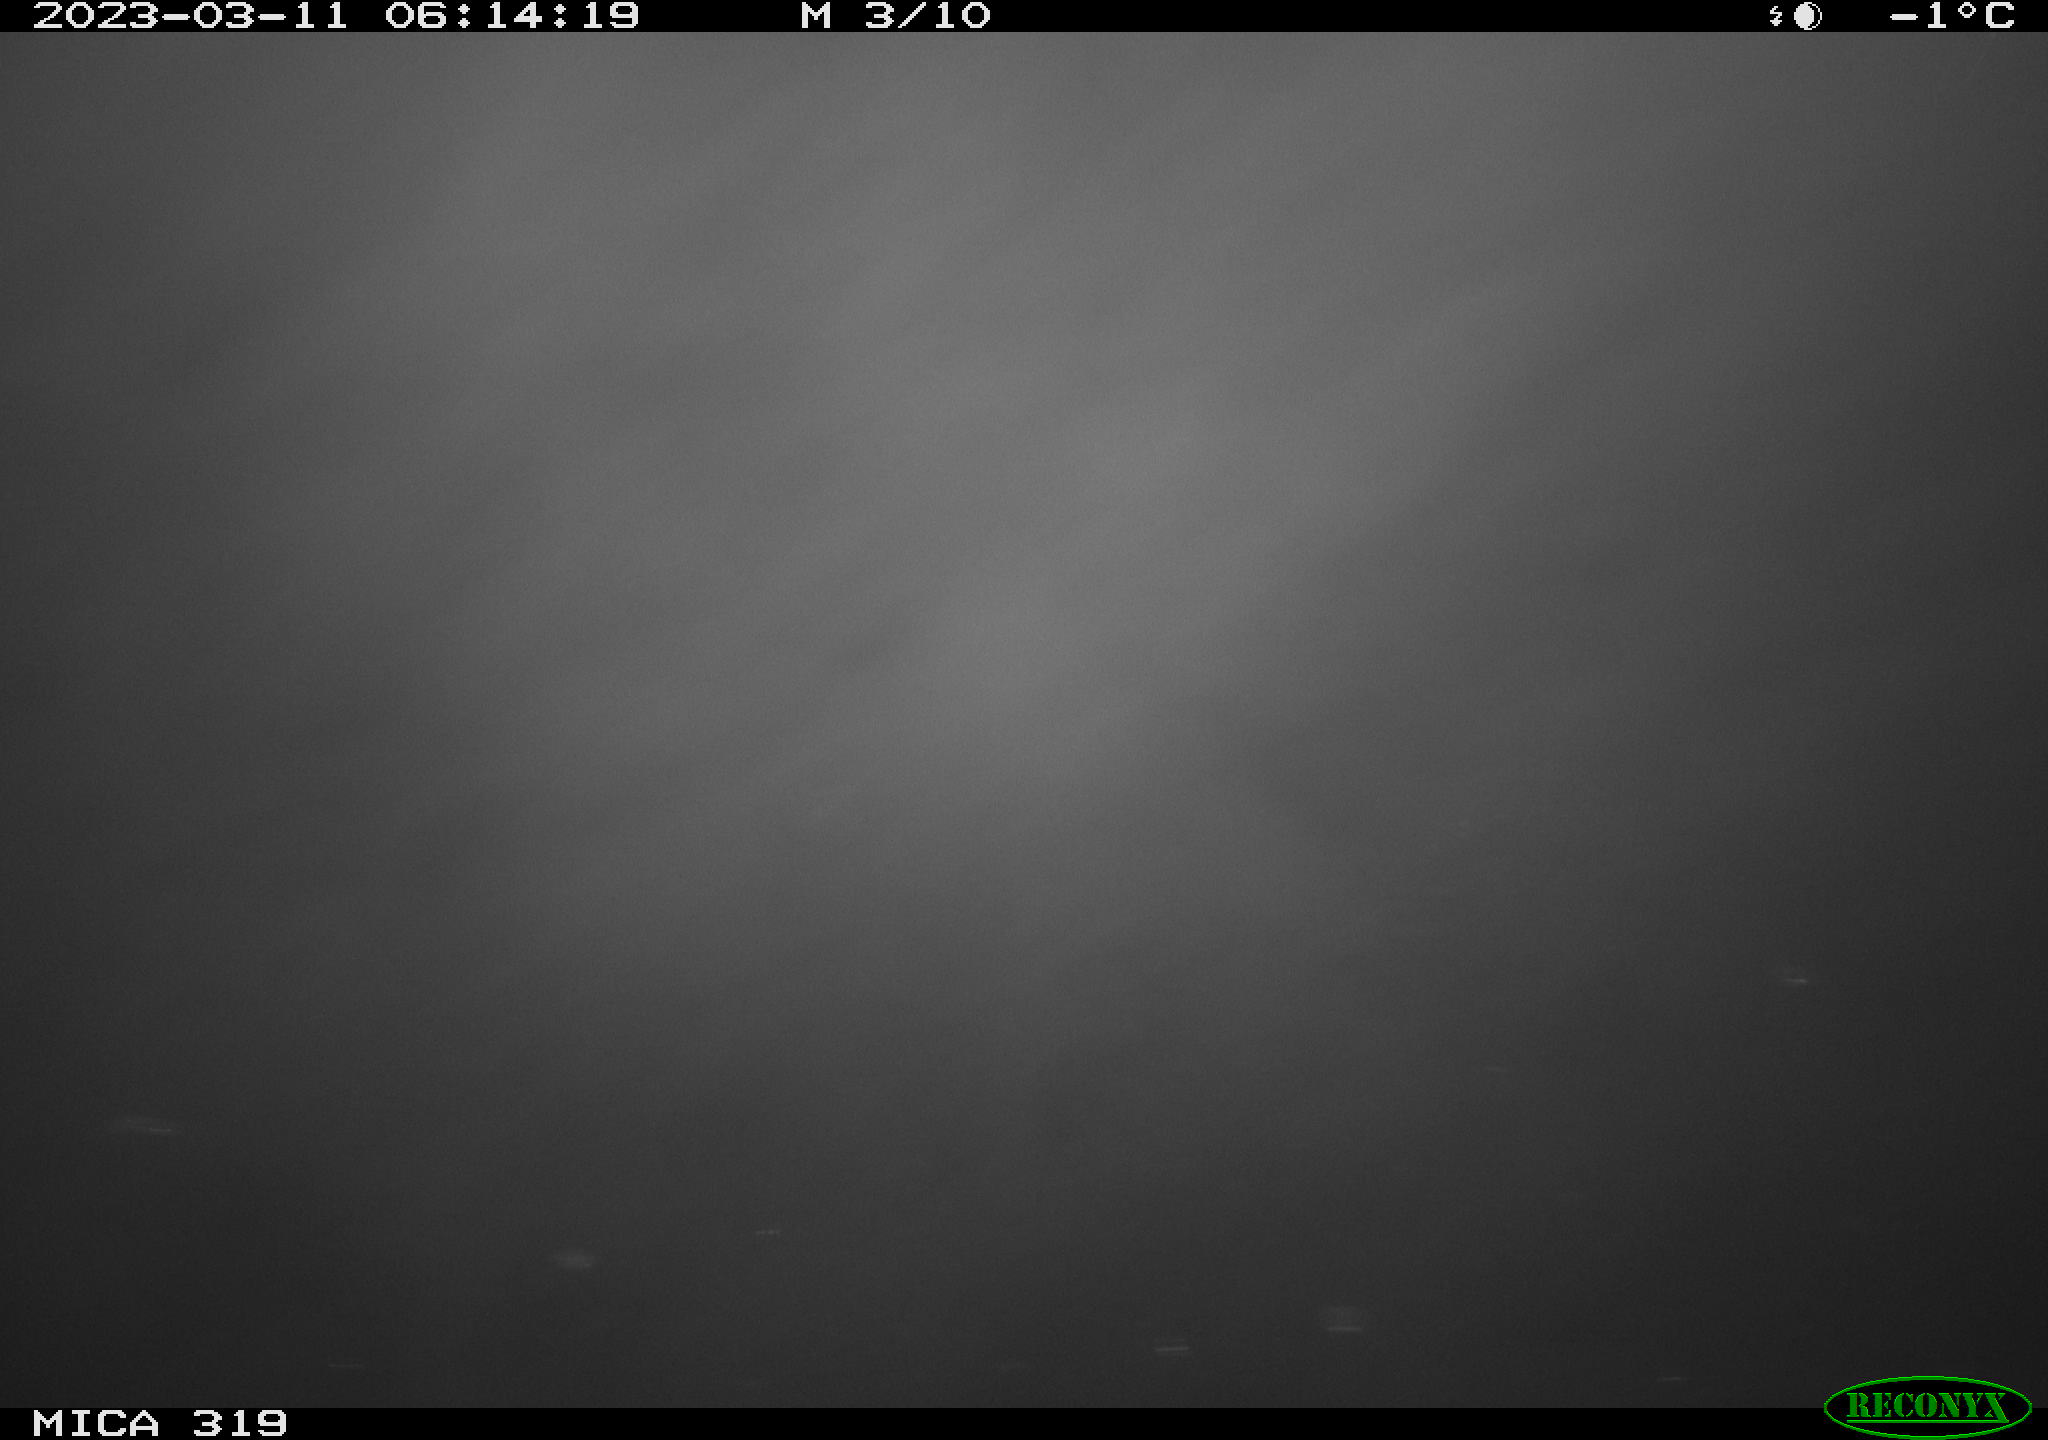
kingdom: Animalia
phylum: Chordata
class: Aves
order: Gruiformes
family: Rallidae
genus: Gallinula
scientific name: Gallinula chloropus
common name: Common moorhen
